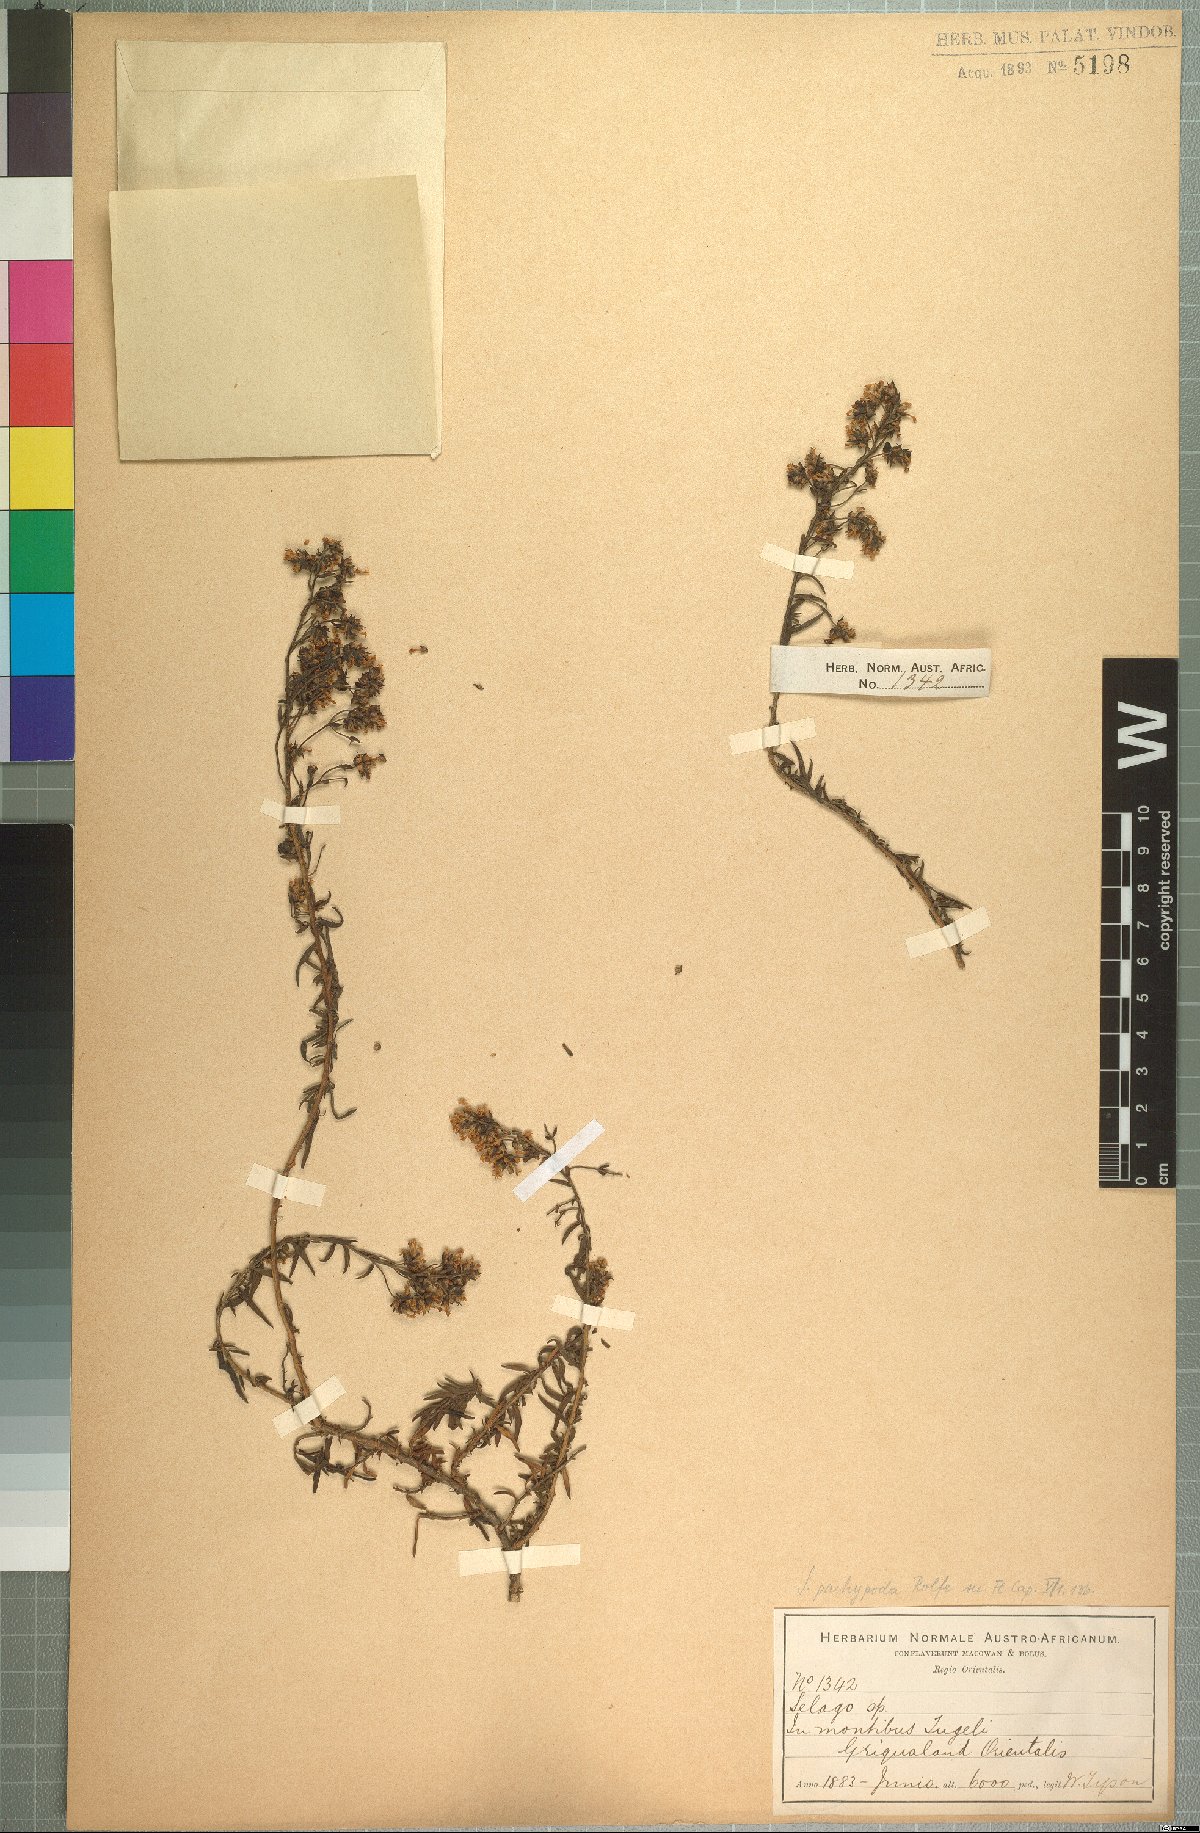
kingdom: Plantae
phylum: Tracheophyta
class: Magnoliopsida
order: Lamiales
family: Scrophulariaceae
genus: Selago
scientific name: Selago pachypoda
